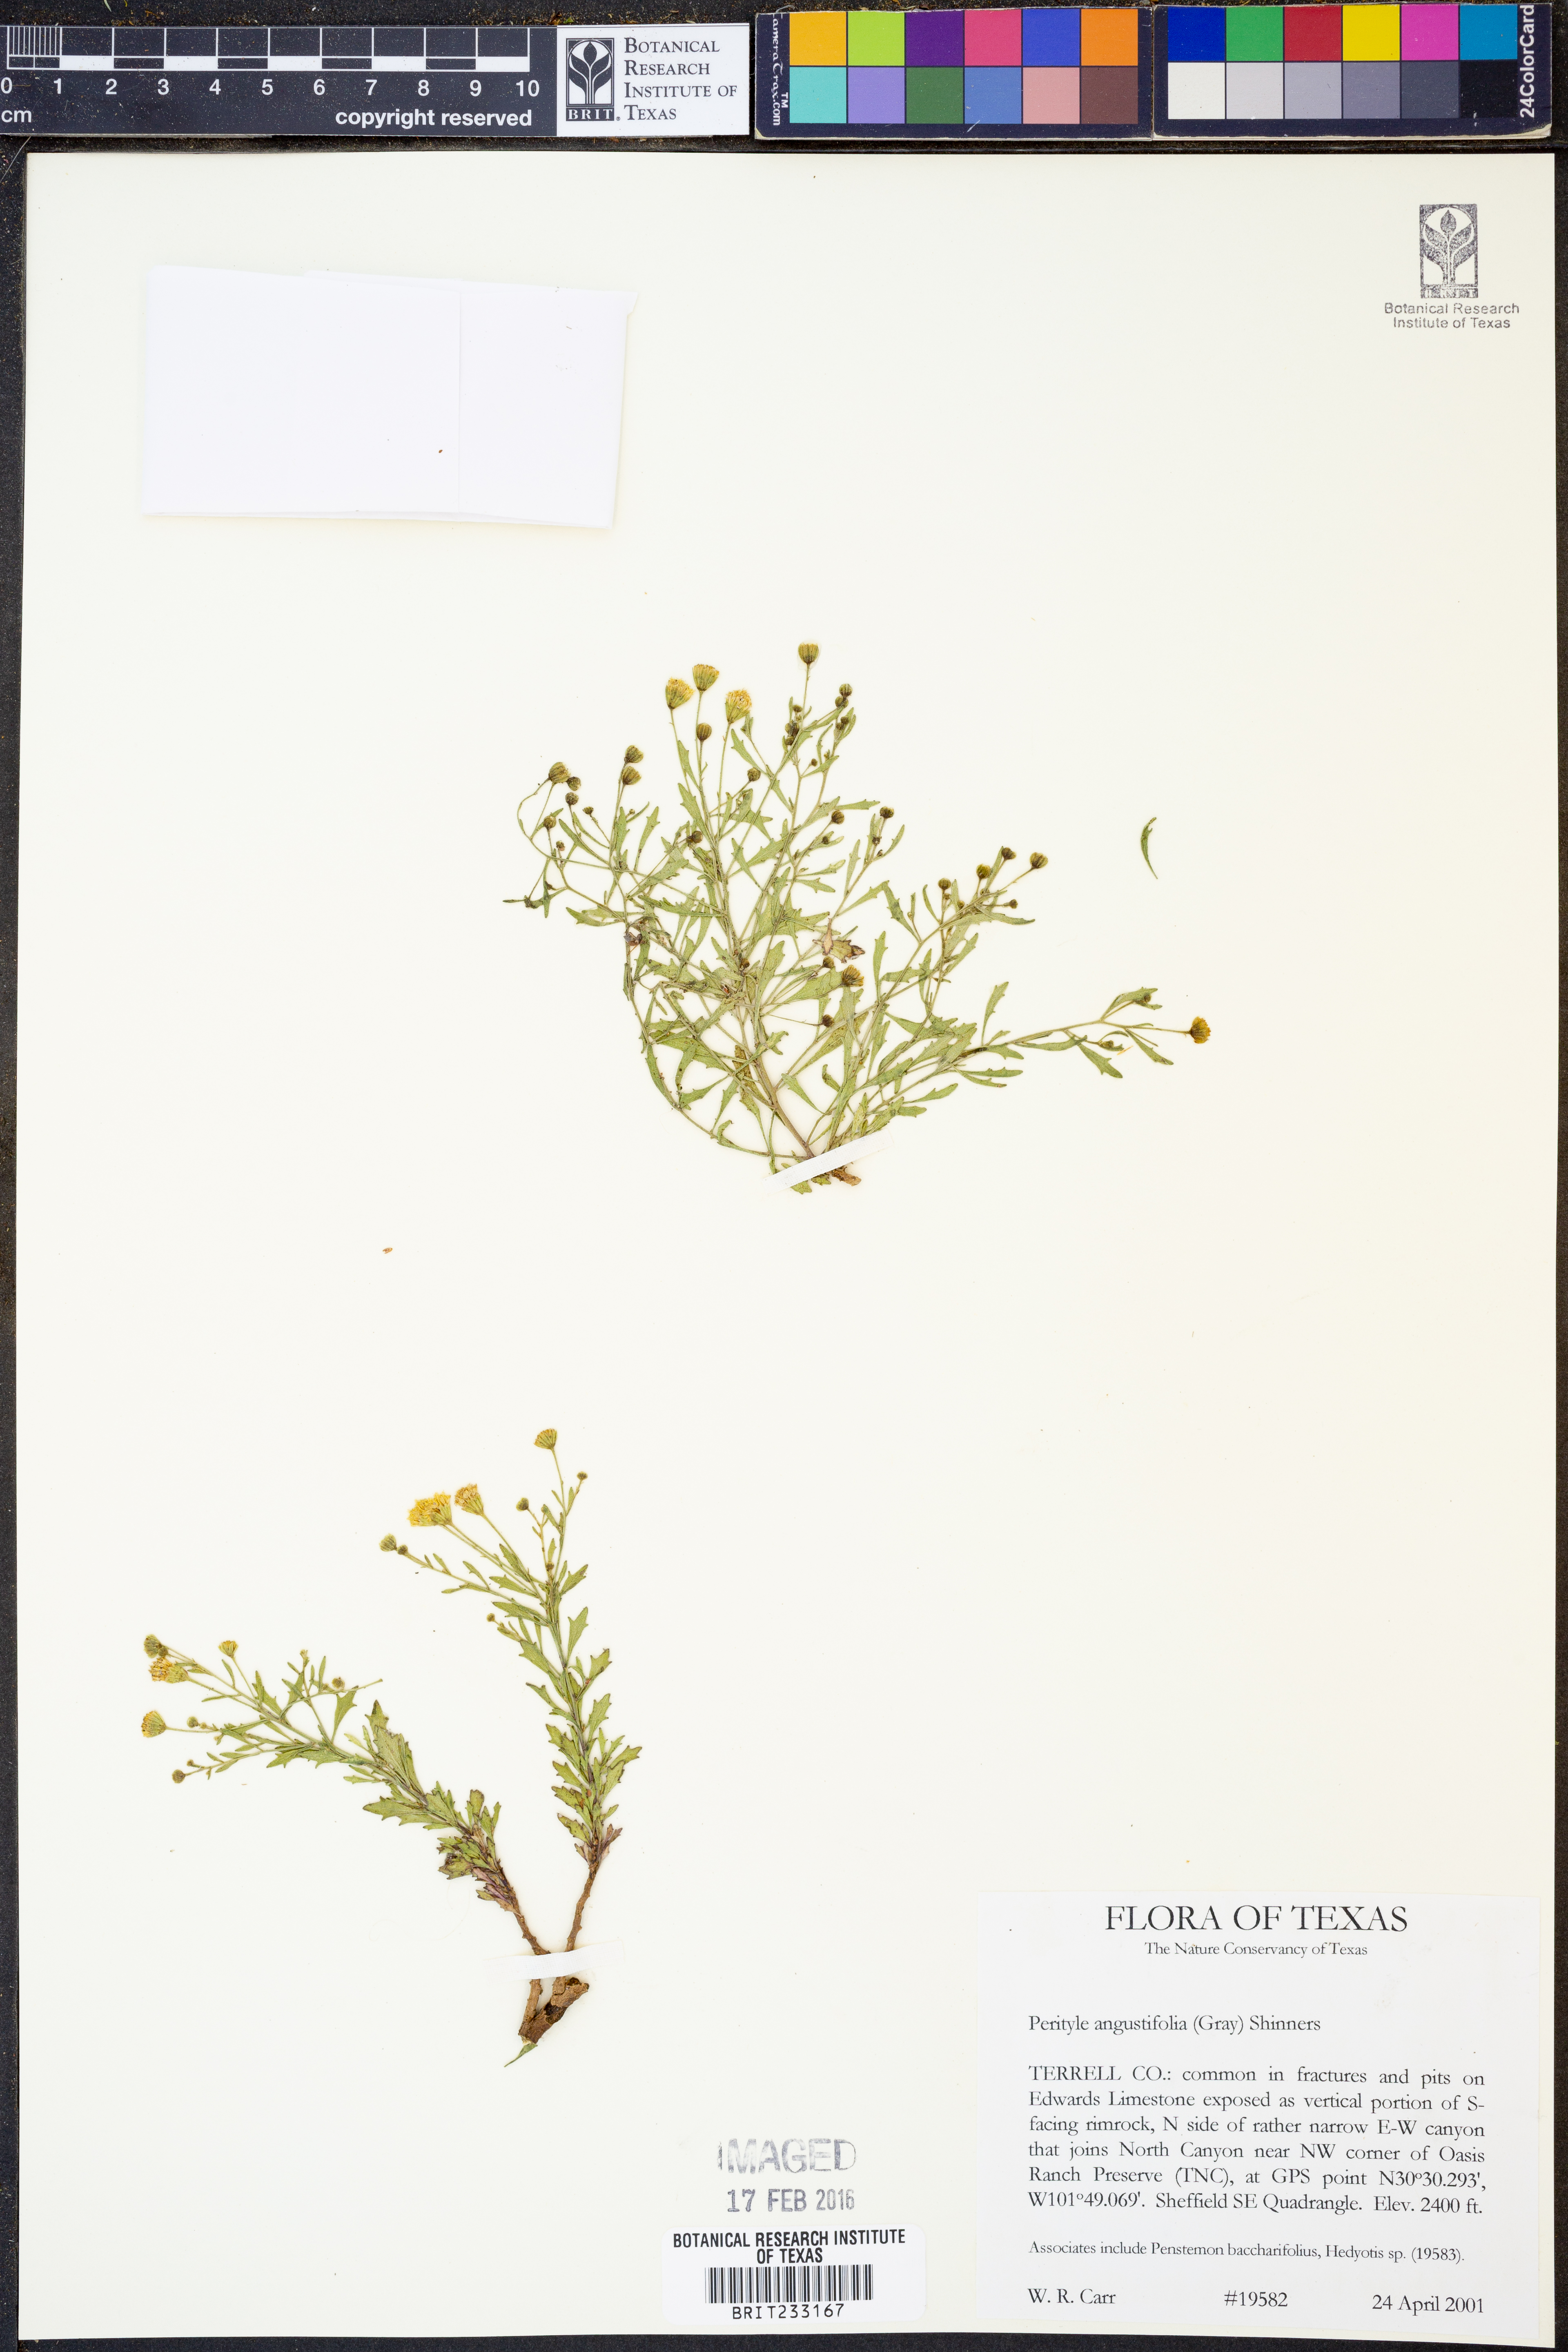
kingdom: Plantae
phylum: Tracheophyta
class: Magnoliopsida
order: Asterales
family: Asteraceae
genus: Laphamia
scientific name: Laphamia angustifolia
